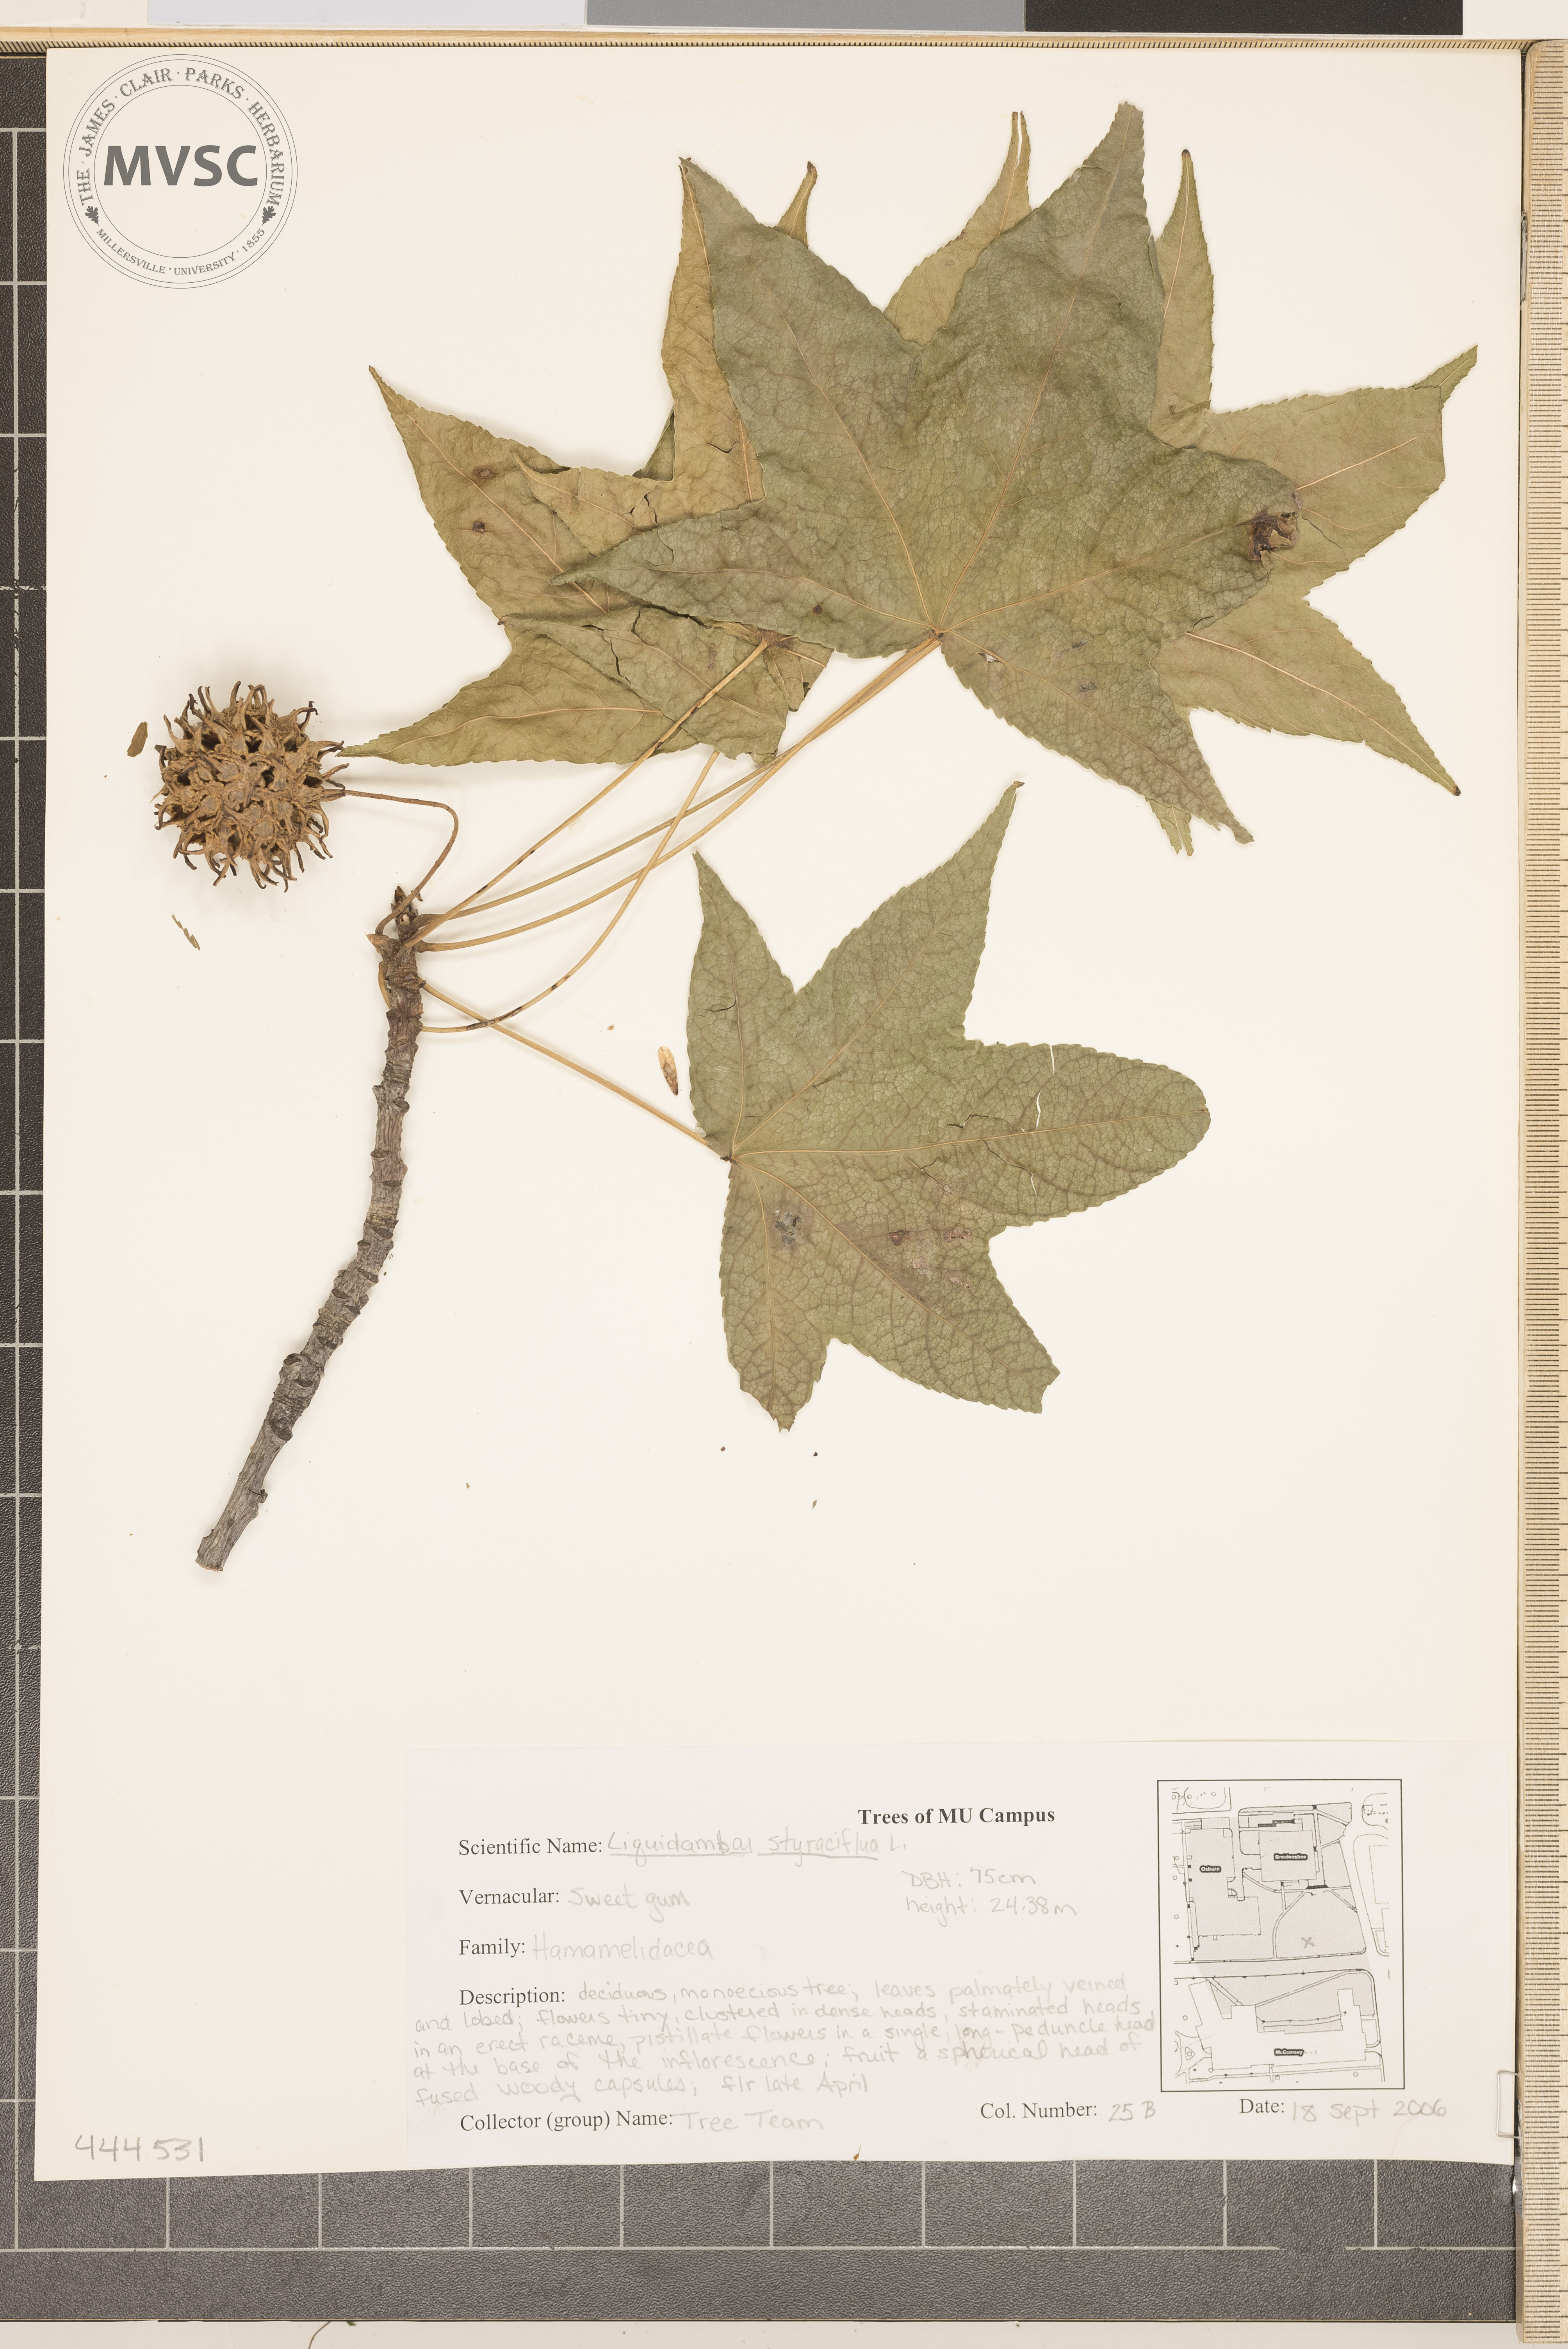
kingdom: Plantae
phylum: Tracheophyta
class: Magnoliopsida
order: Saxifragales
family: Altingiaceae
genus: Liquidambar
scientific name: Liquidambar styraciflua
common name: Sweetgum
